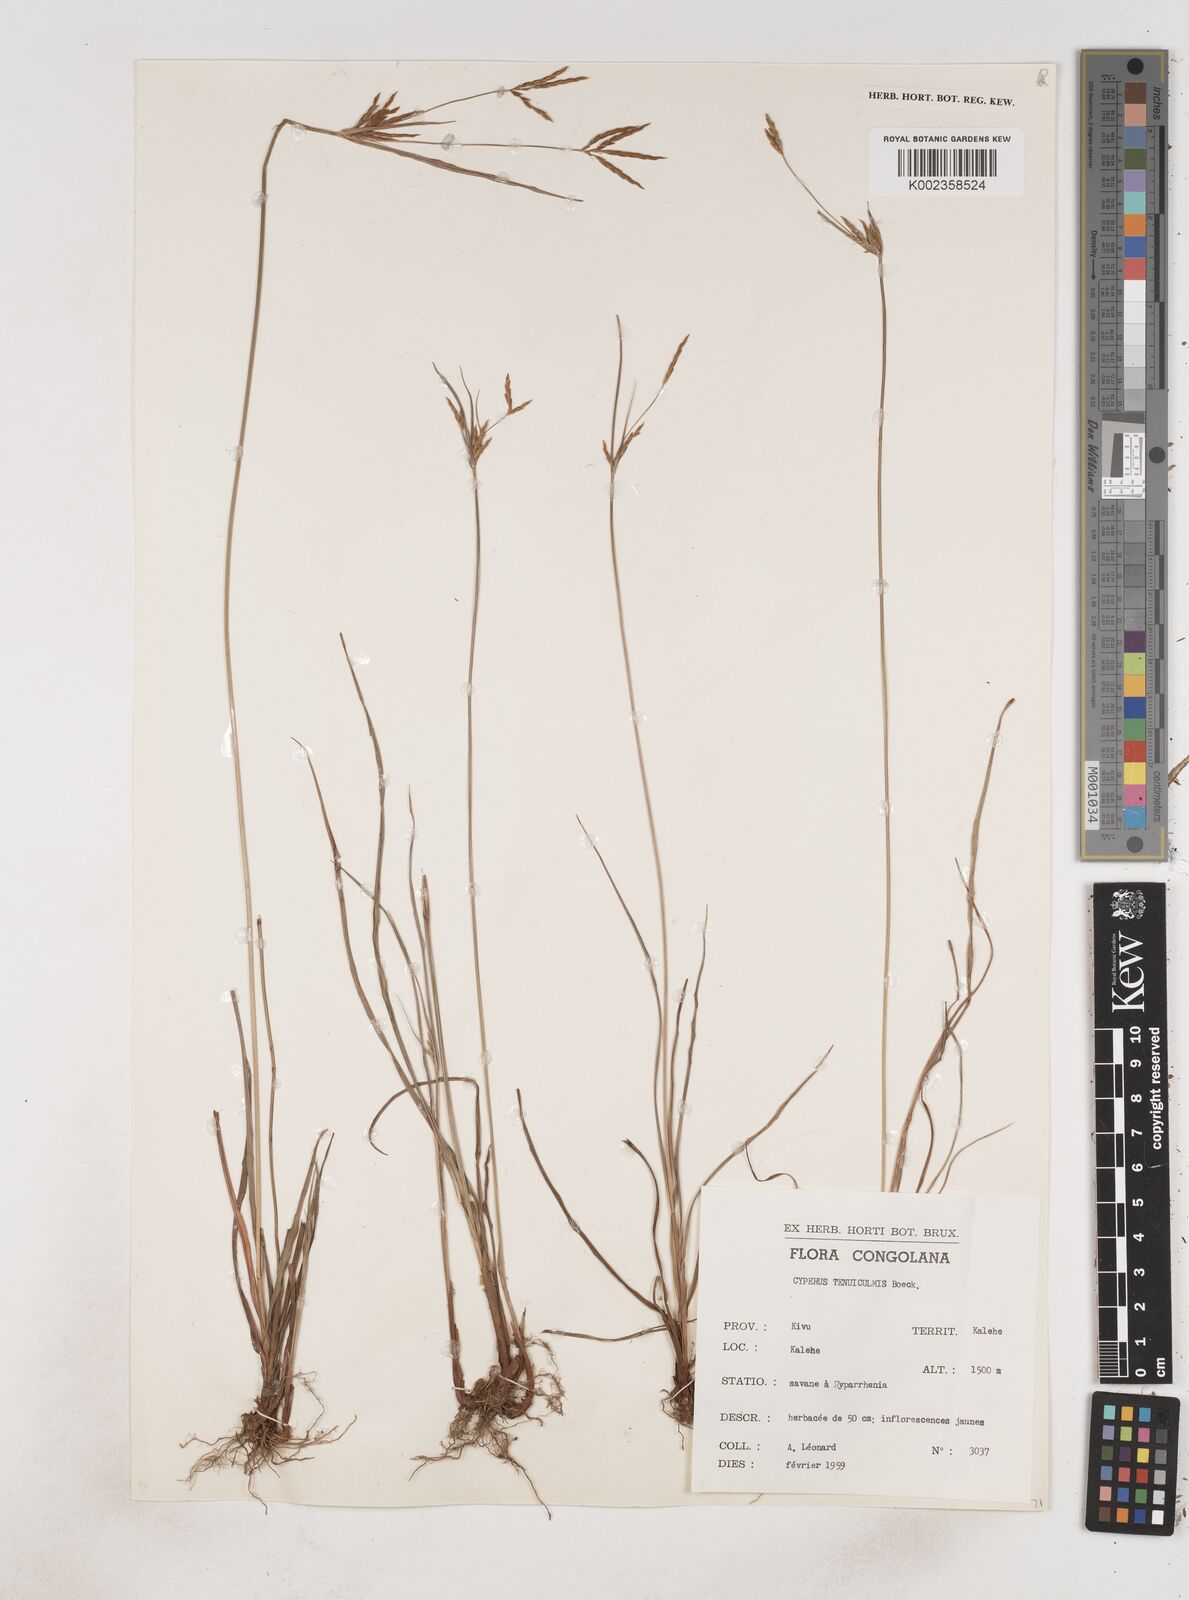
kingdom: Plantae
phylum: Tracheophyta
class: Liliopsida
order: Poales
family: Cyperaceae
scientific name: Cyperaceae
